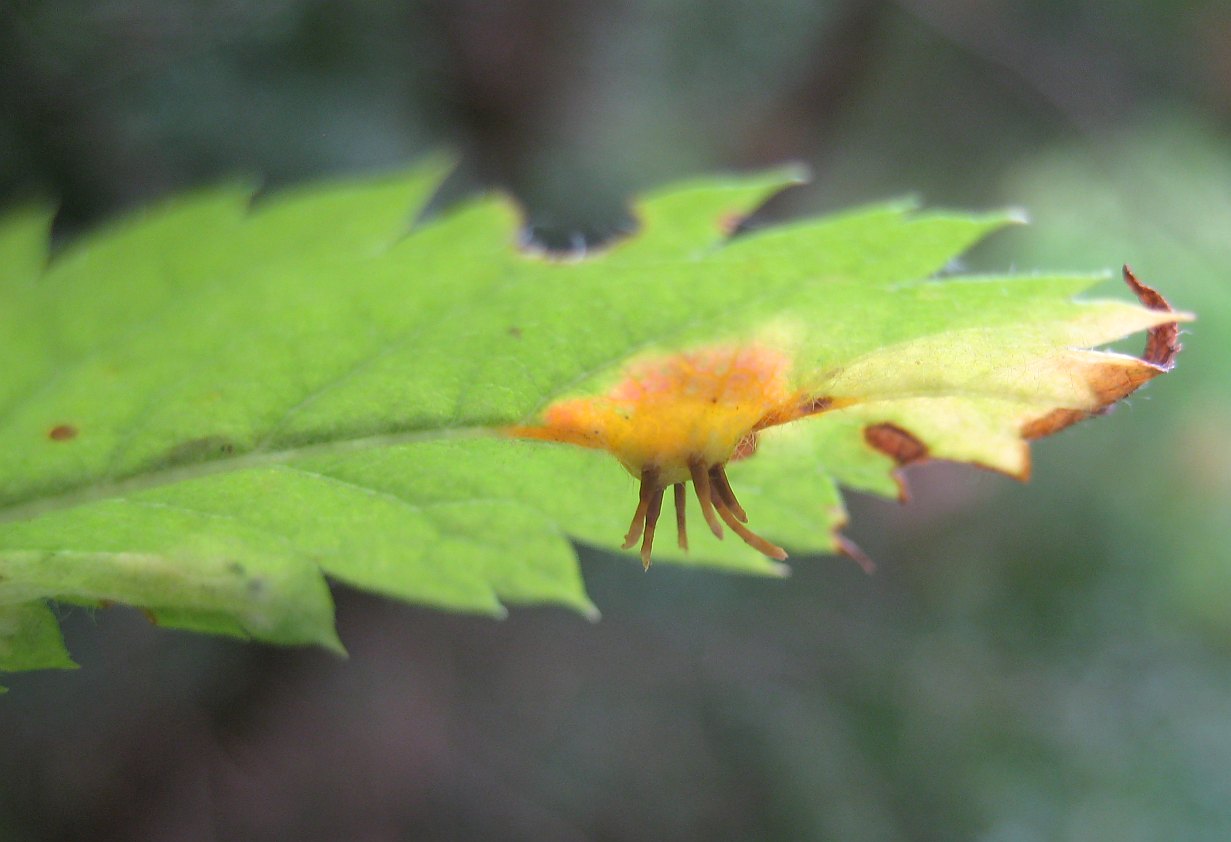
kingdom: Fungi
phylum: Basidiomycota
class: Pucciniomycetes
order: Pucciniales
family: Gymnosporangiaceae
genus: Gymnosporangium
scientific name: Gymnosporangium cornutum
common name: rønnehorn-bævrerust
